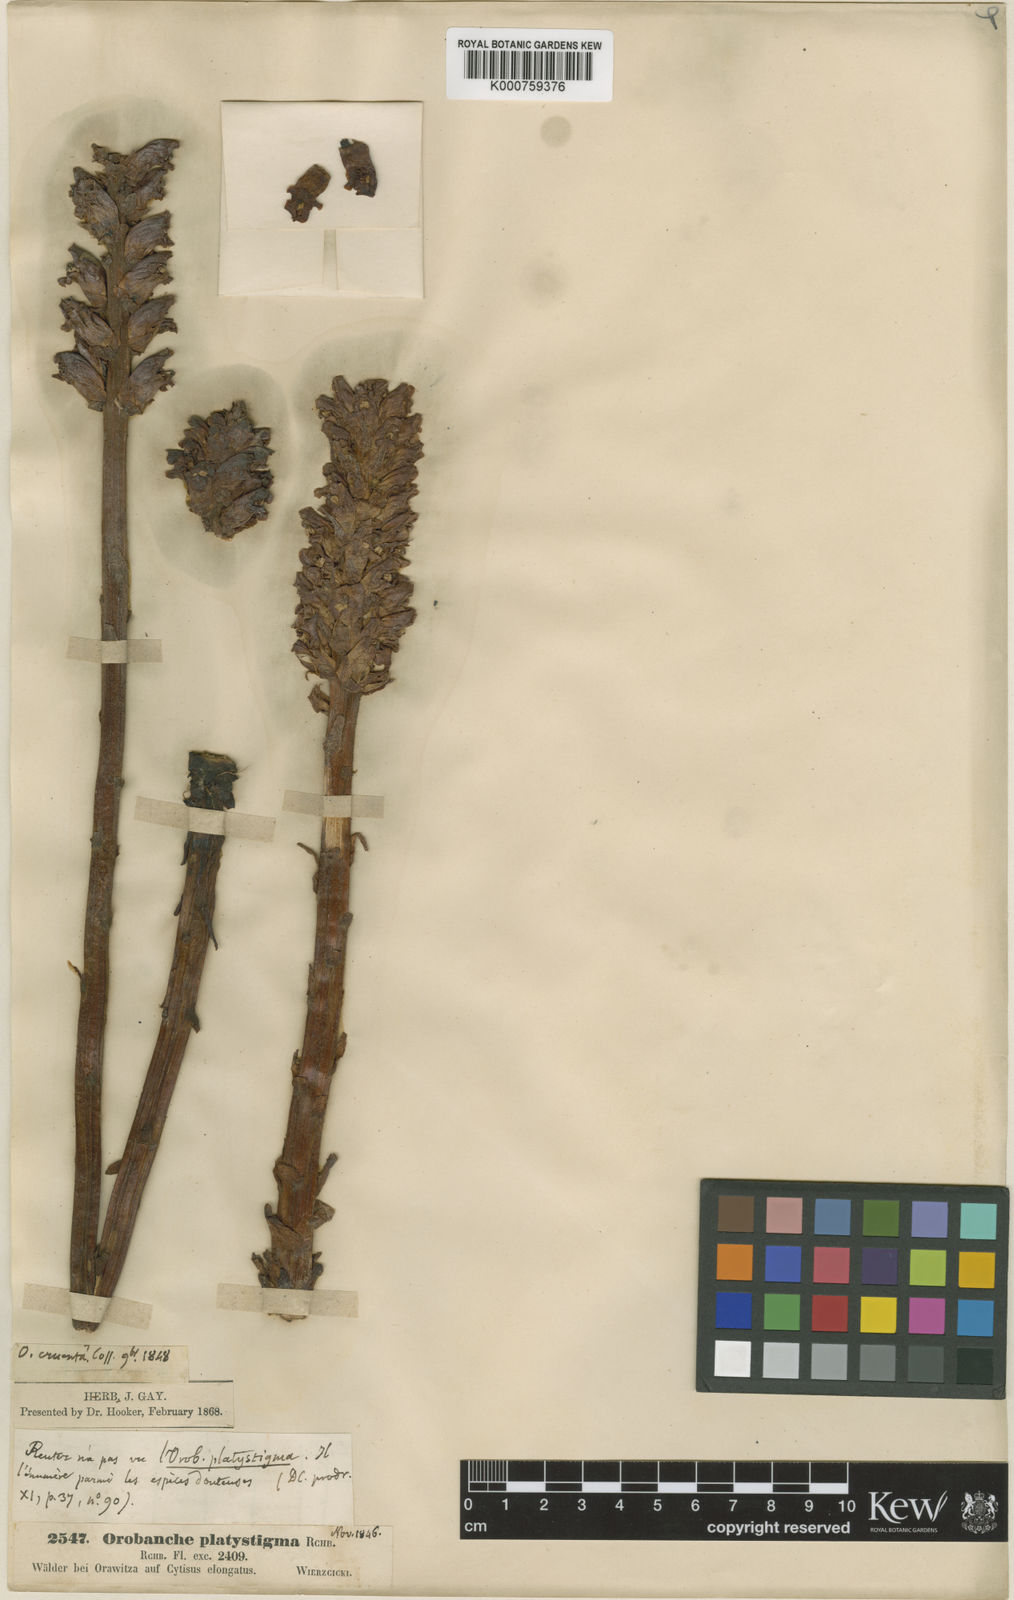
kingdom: Plantae
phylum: Tracheophyta
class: Magnoliopsida
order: Lamiales
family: Orobanchaceae
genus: Orobanche
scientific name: Orobanche gracilis
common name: Slender broomrape
